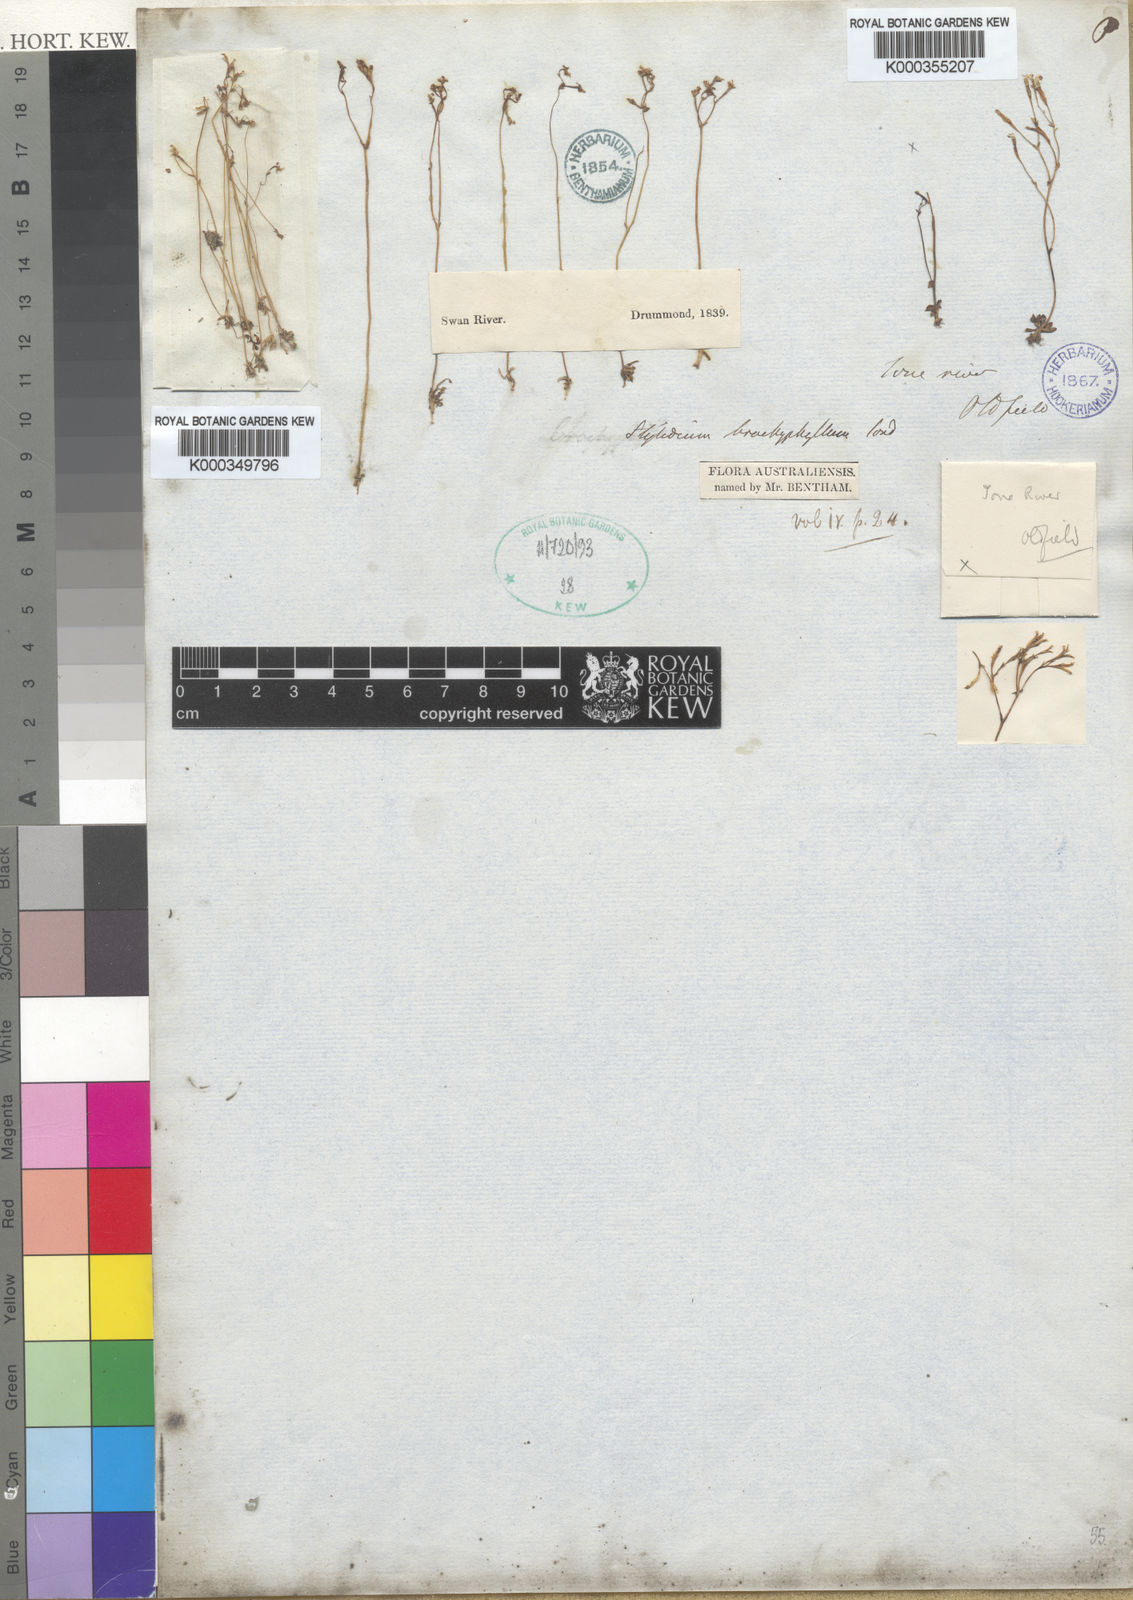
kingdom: Plantae
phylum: Tracheophyta
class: Magnoliopsida
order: Asterales
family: Stylidiaceae
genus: Stylidium
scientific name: Stylidium roseoalatum
